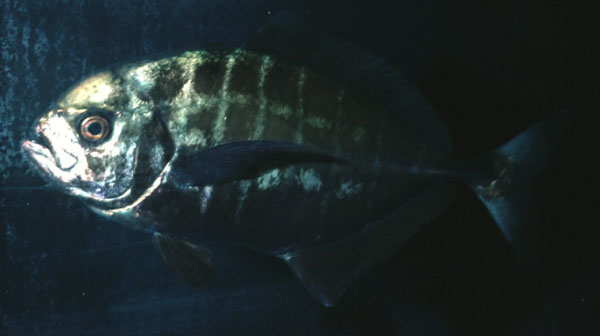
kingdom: Animalia
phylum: Chordata
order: Perciformes
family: Carangidae
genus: Uraspis
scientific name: Uraspis
